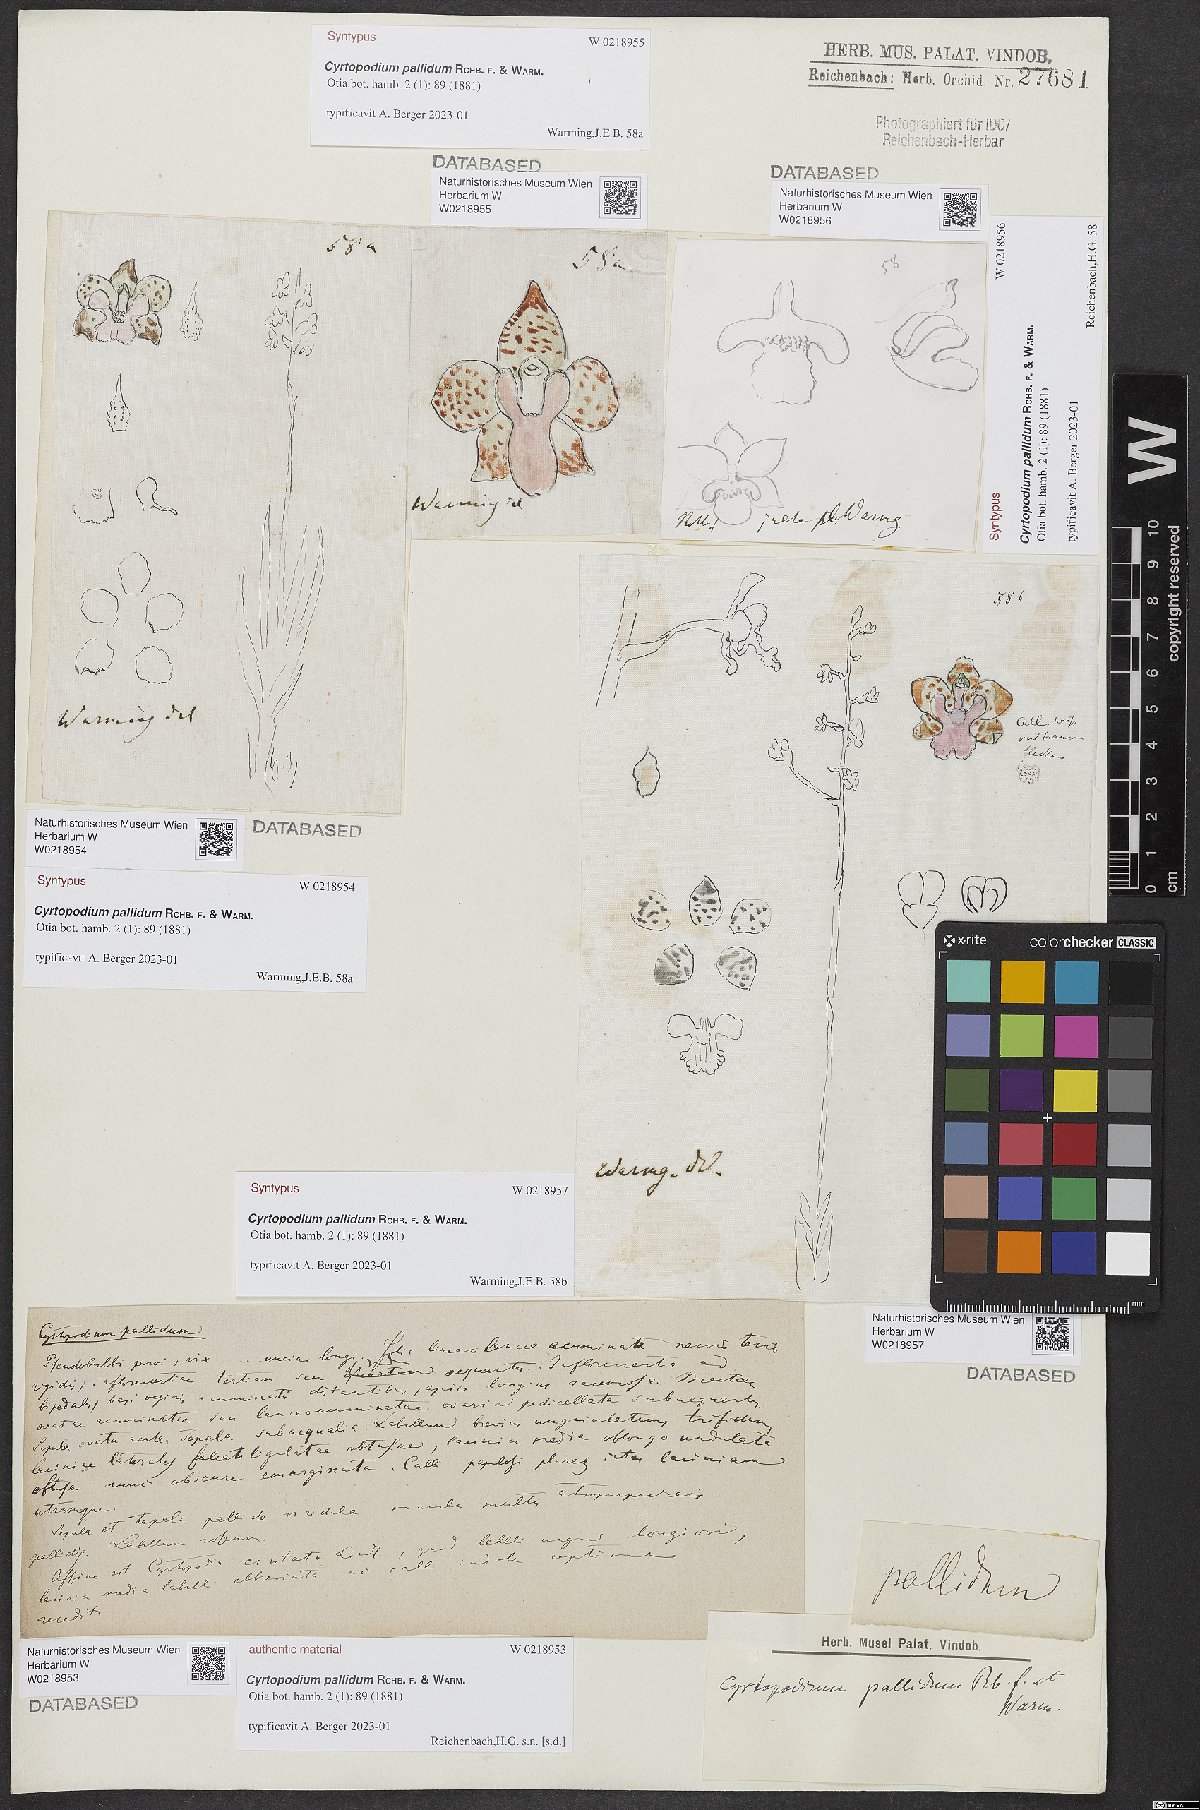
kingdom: Plantae
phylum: Tracheophyta
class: Liliopsida
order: Asparagales
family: Orchidaceae
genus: Cyrtopodium
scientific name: Cyrtopodium pallidum
